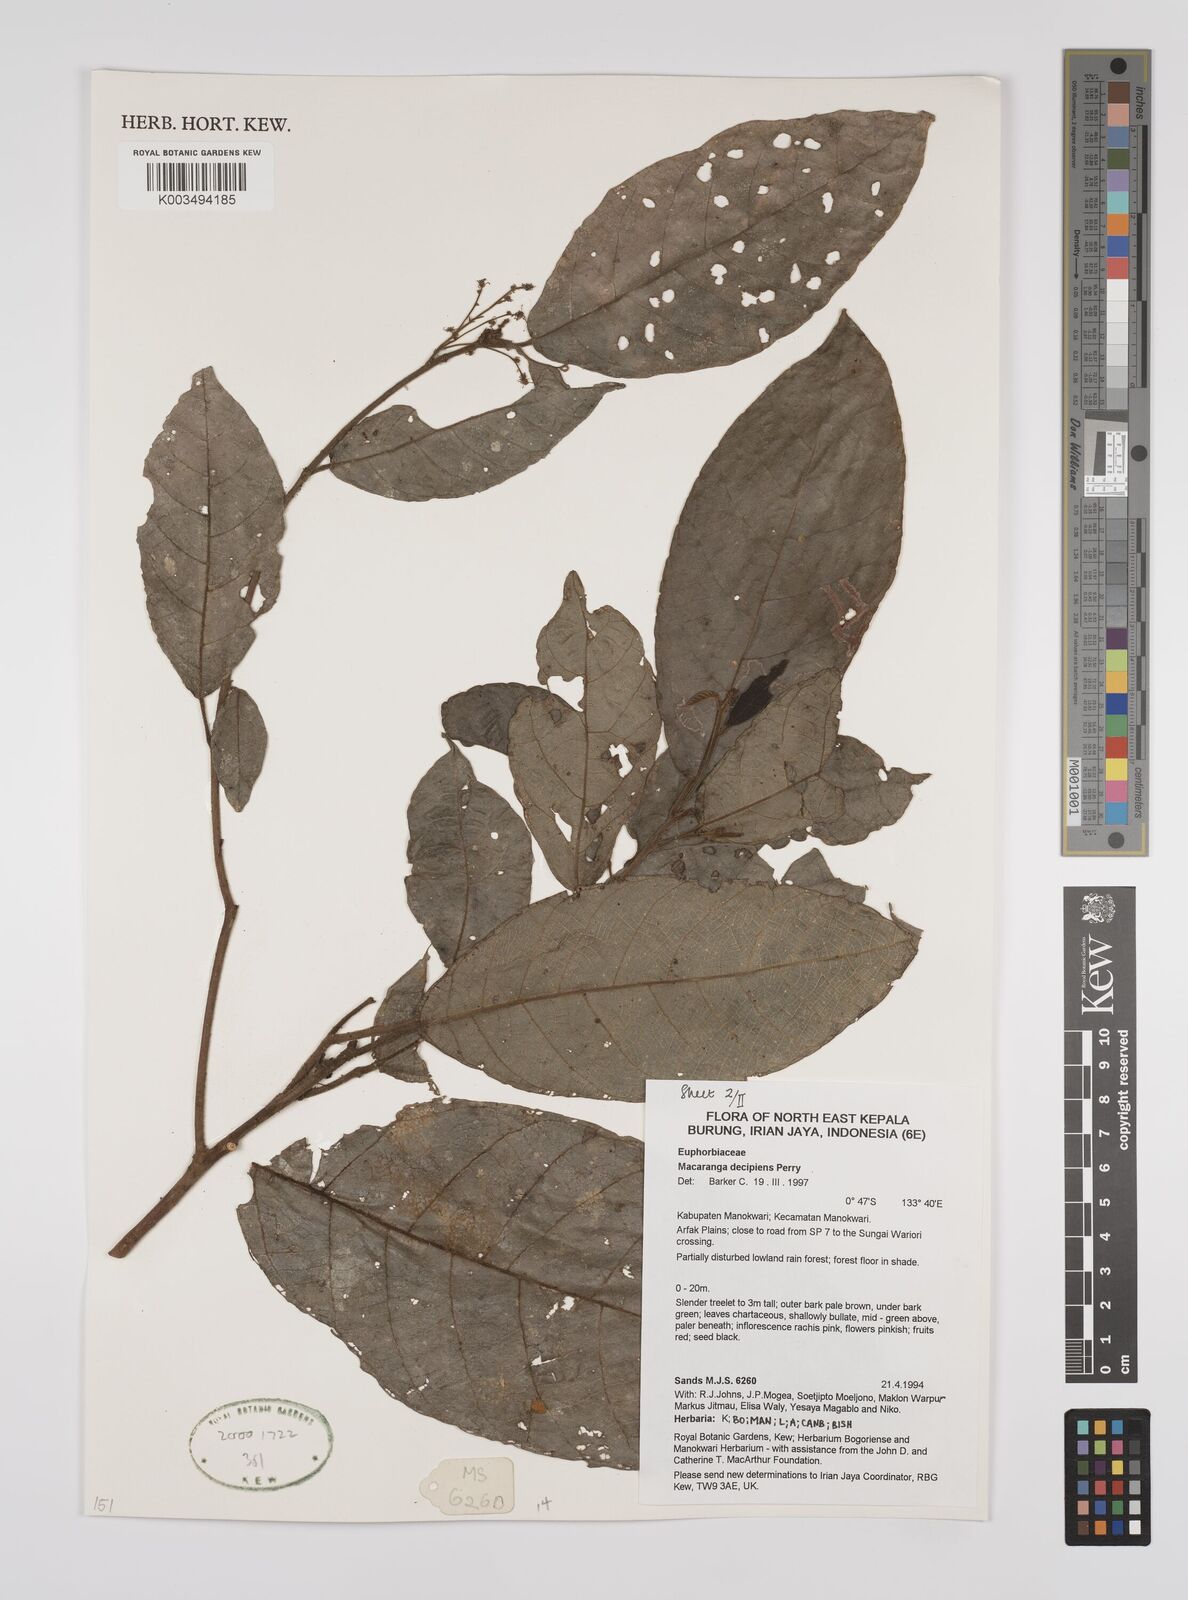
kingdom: Plantae
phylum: Tracheophyta
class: Magnoliopsida
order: Malpighiales
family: Euphorbiaceae
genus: Macaranga
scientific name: Macaranga decipiens
